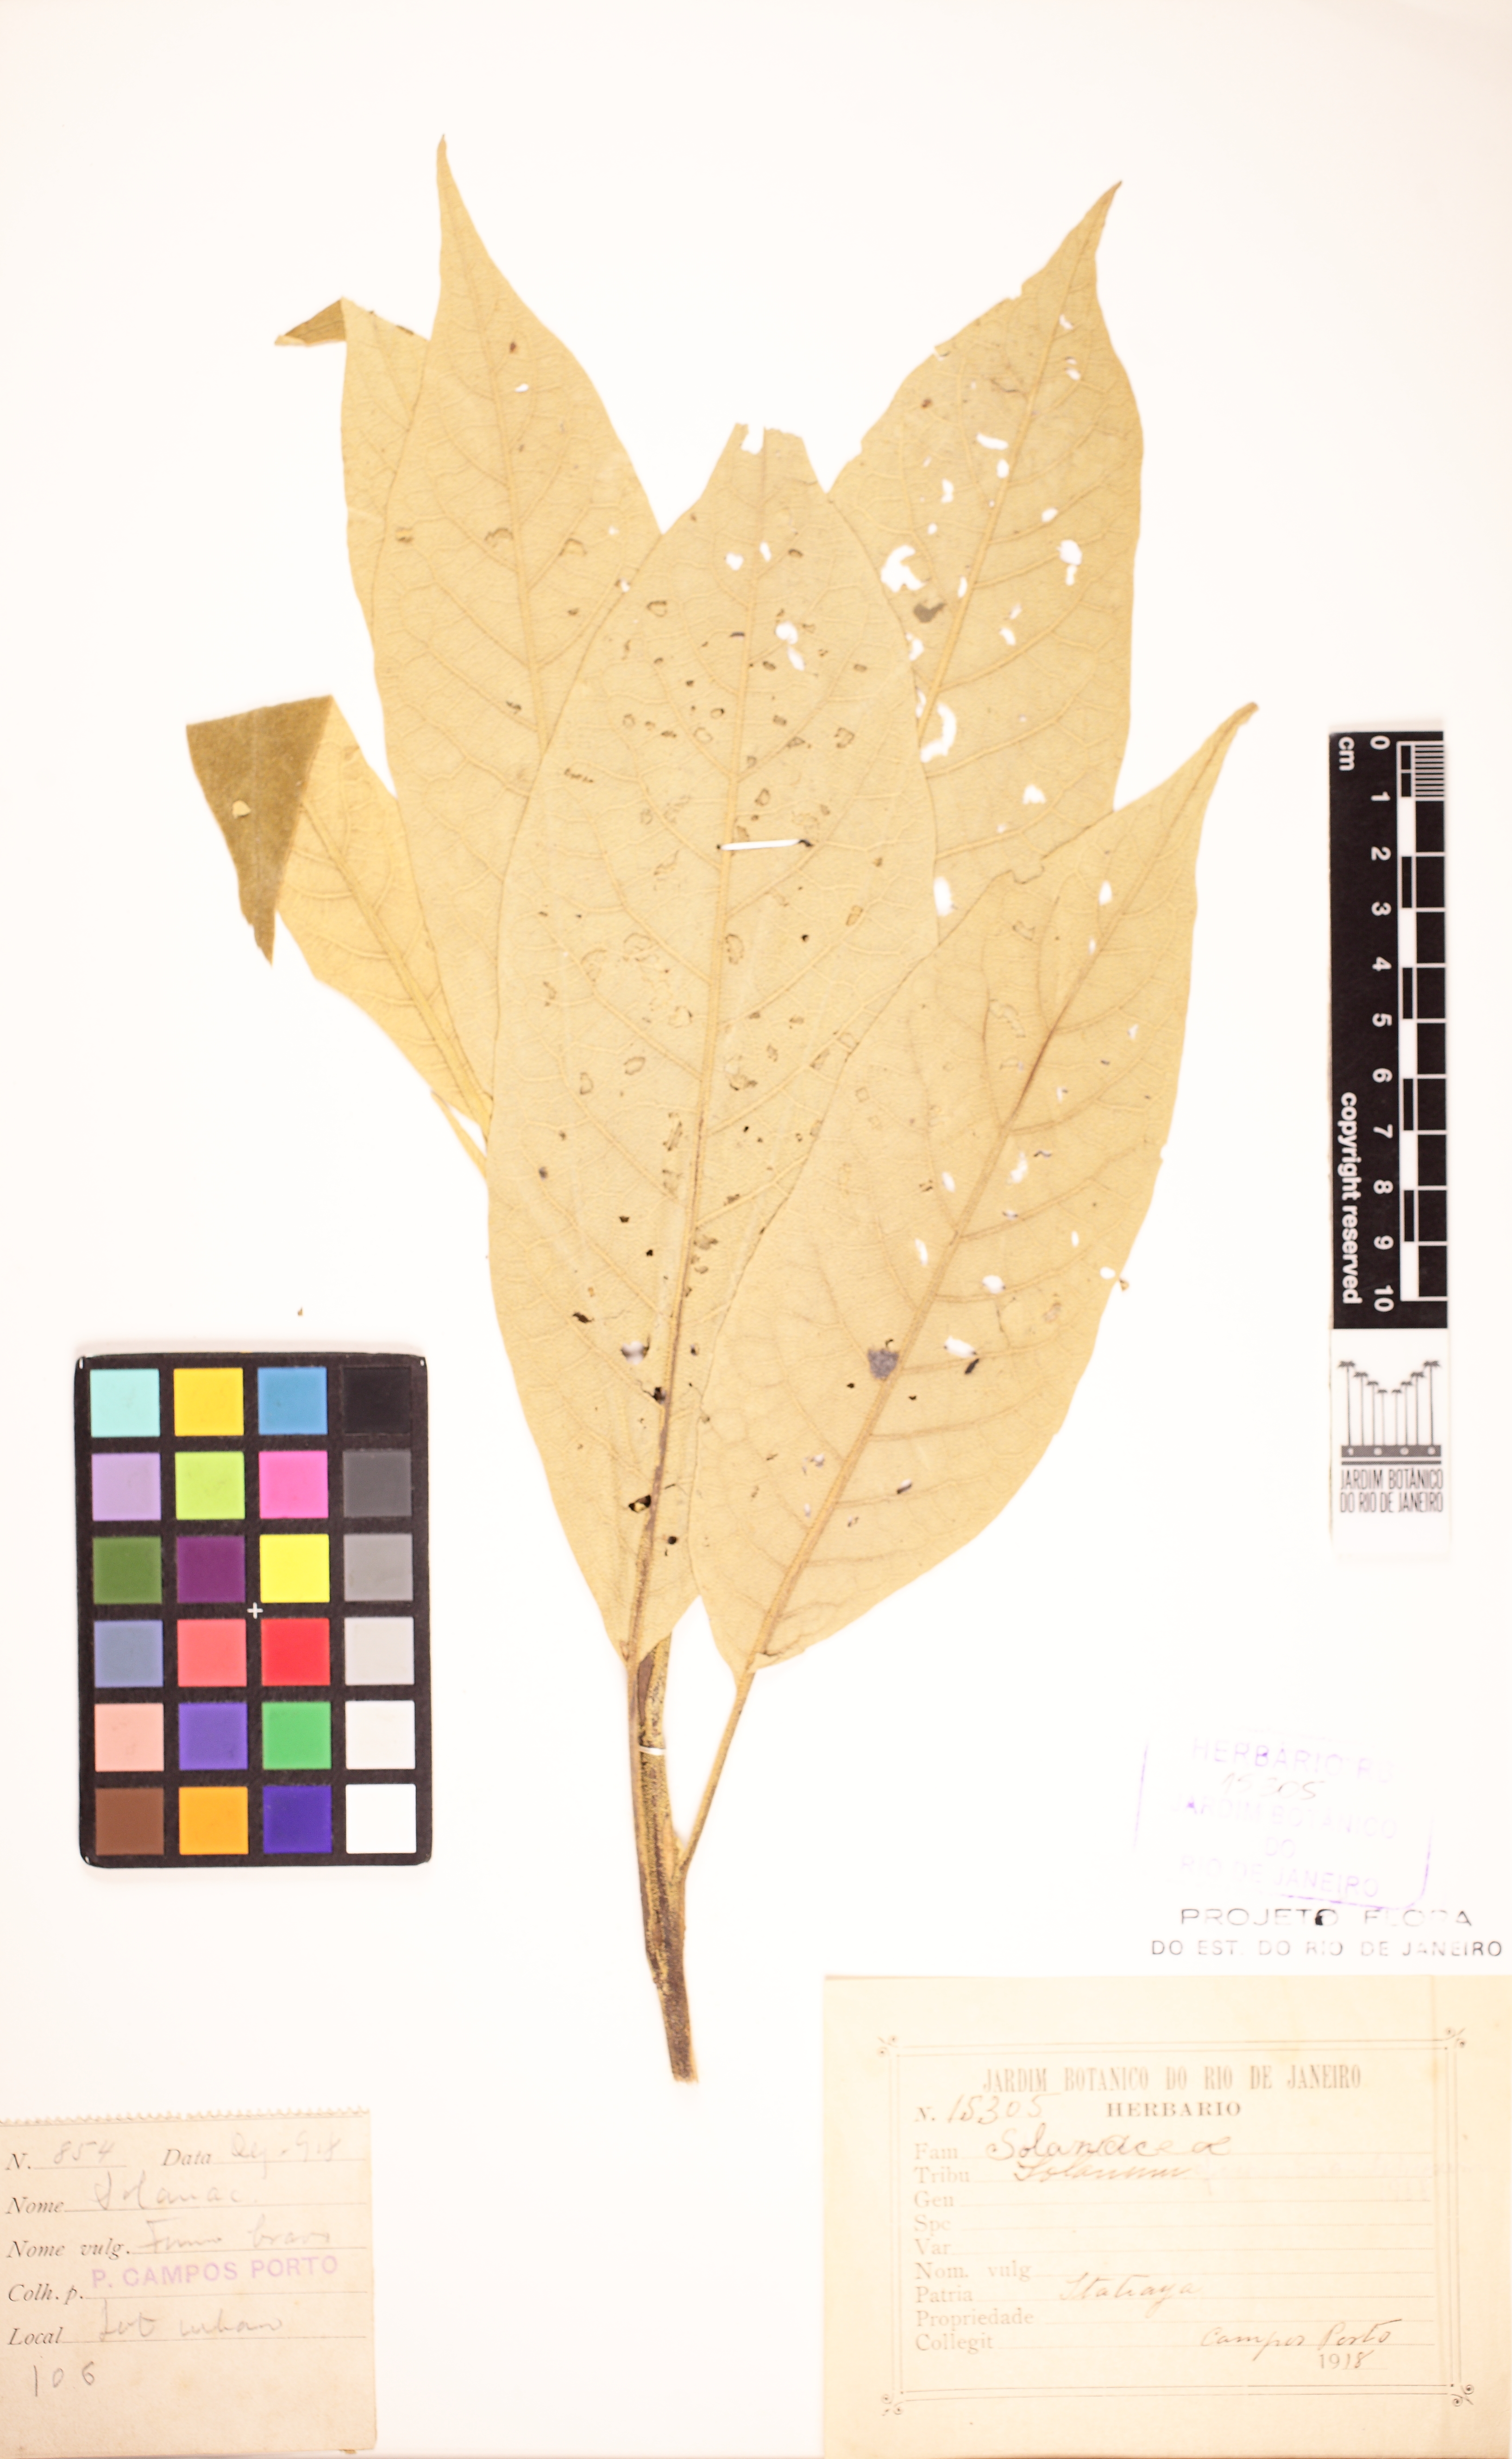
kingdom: Plantae
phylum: Tracheophyta
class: Magnoliopsida
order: Solanales
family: Solanaceae
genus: Solanum
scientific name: Solanum granulosoleprosum
